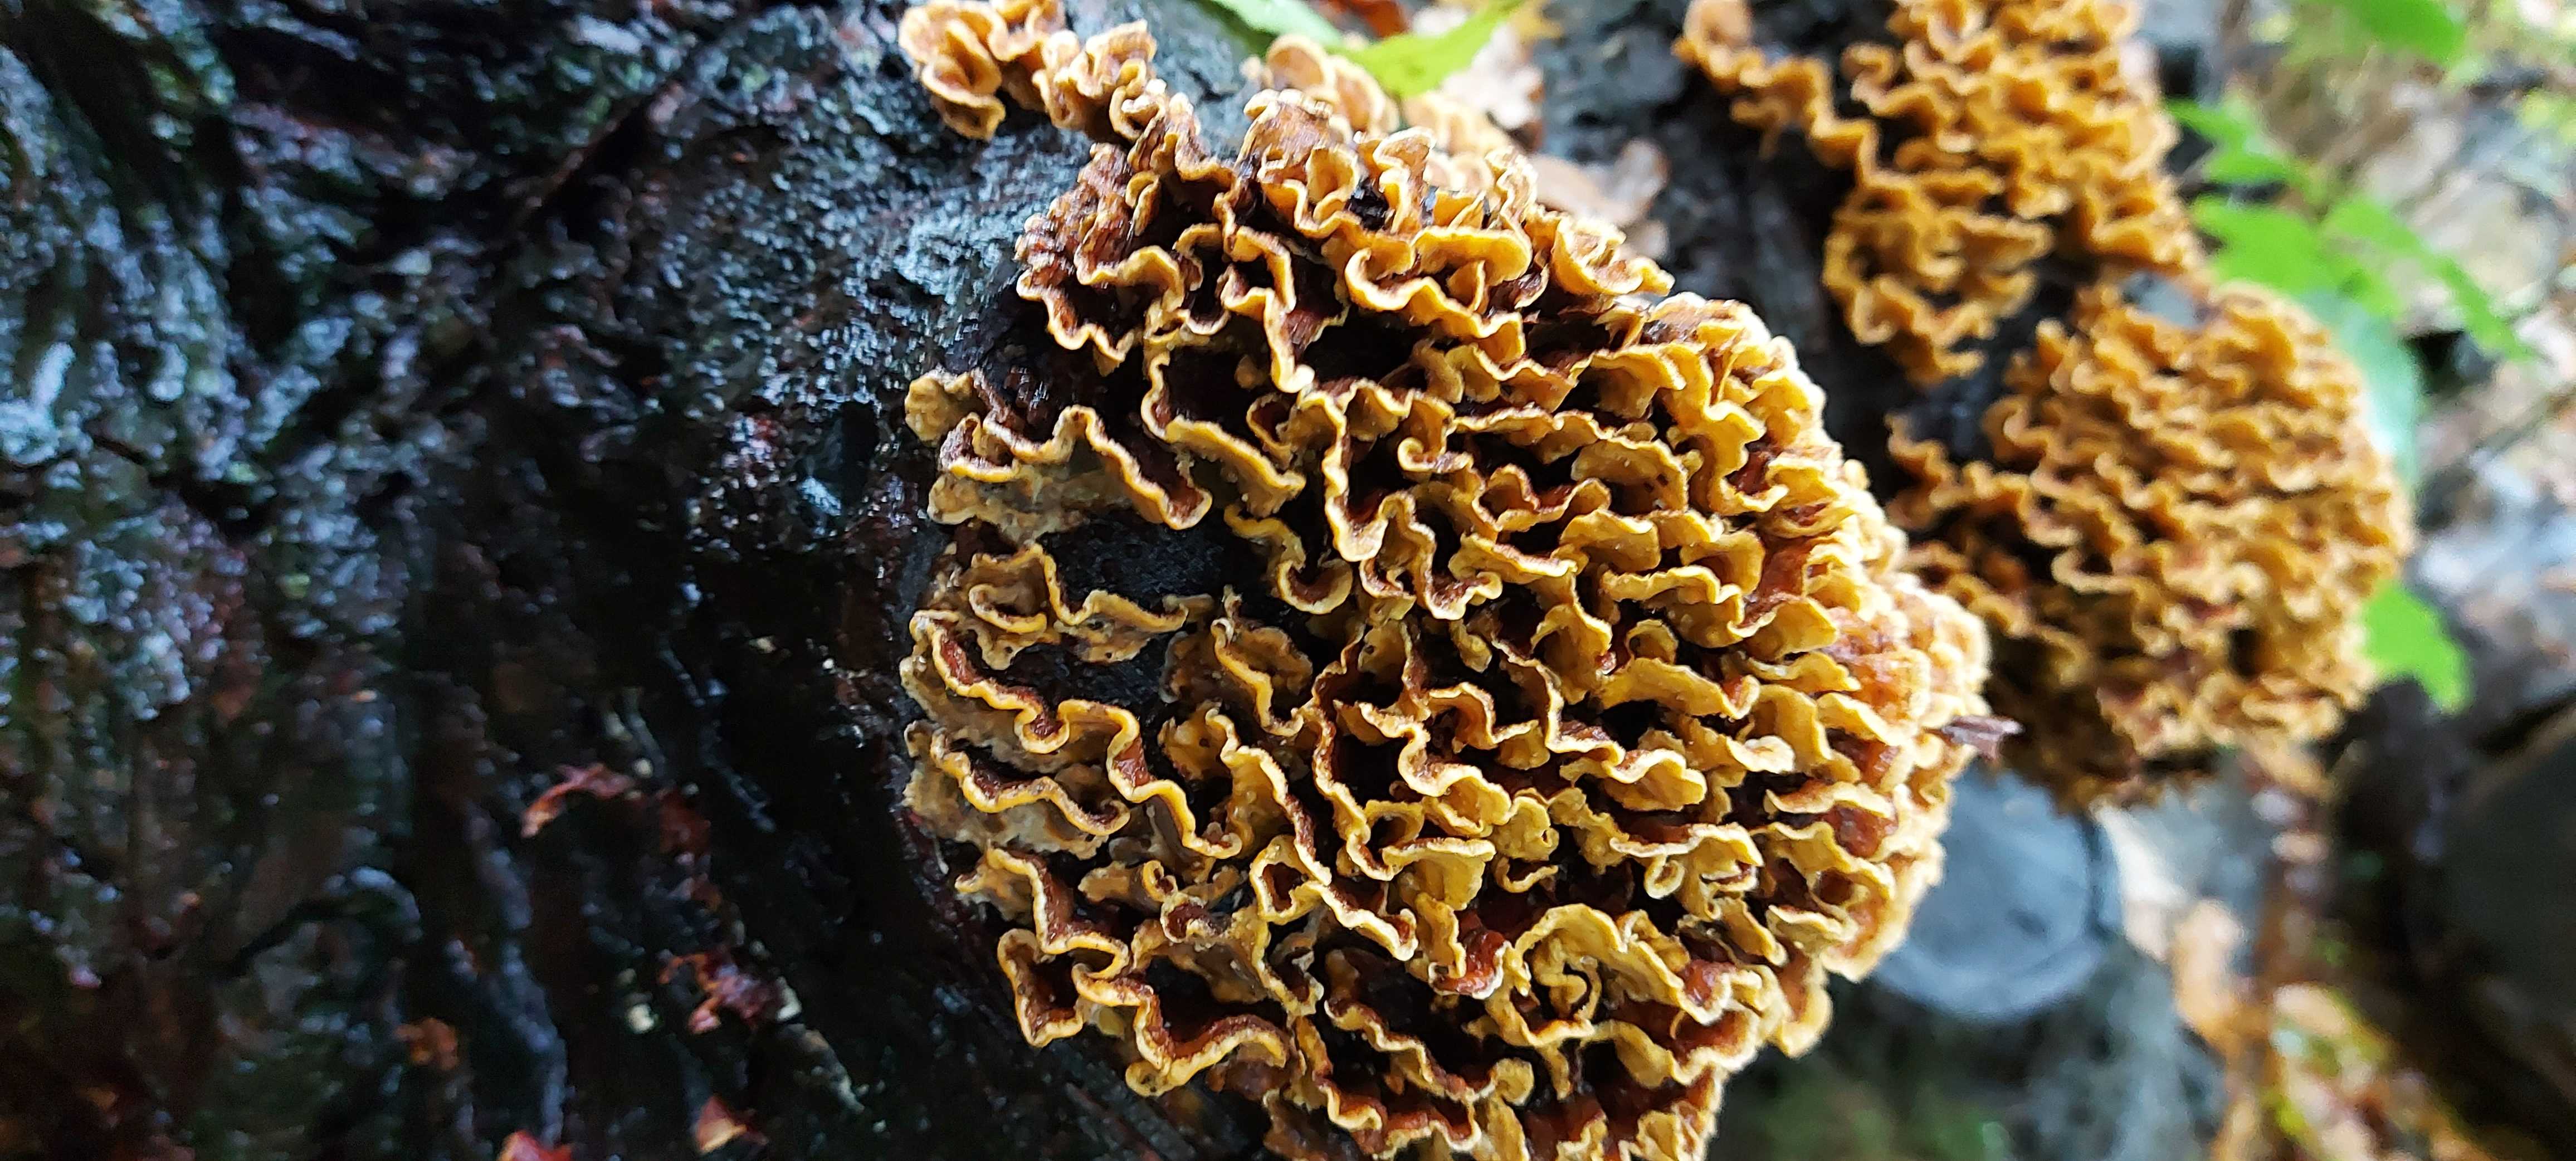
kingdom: Fungi
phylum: Basidiomycota
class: Agaricomycetes
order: Russulales
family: Stereaceae
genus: Stereum
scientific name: Stereum hirsutum
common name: håret lædersvamp
